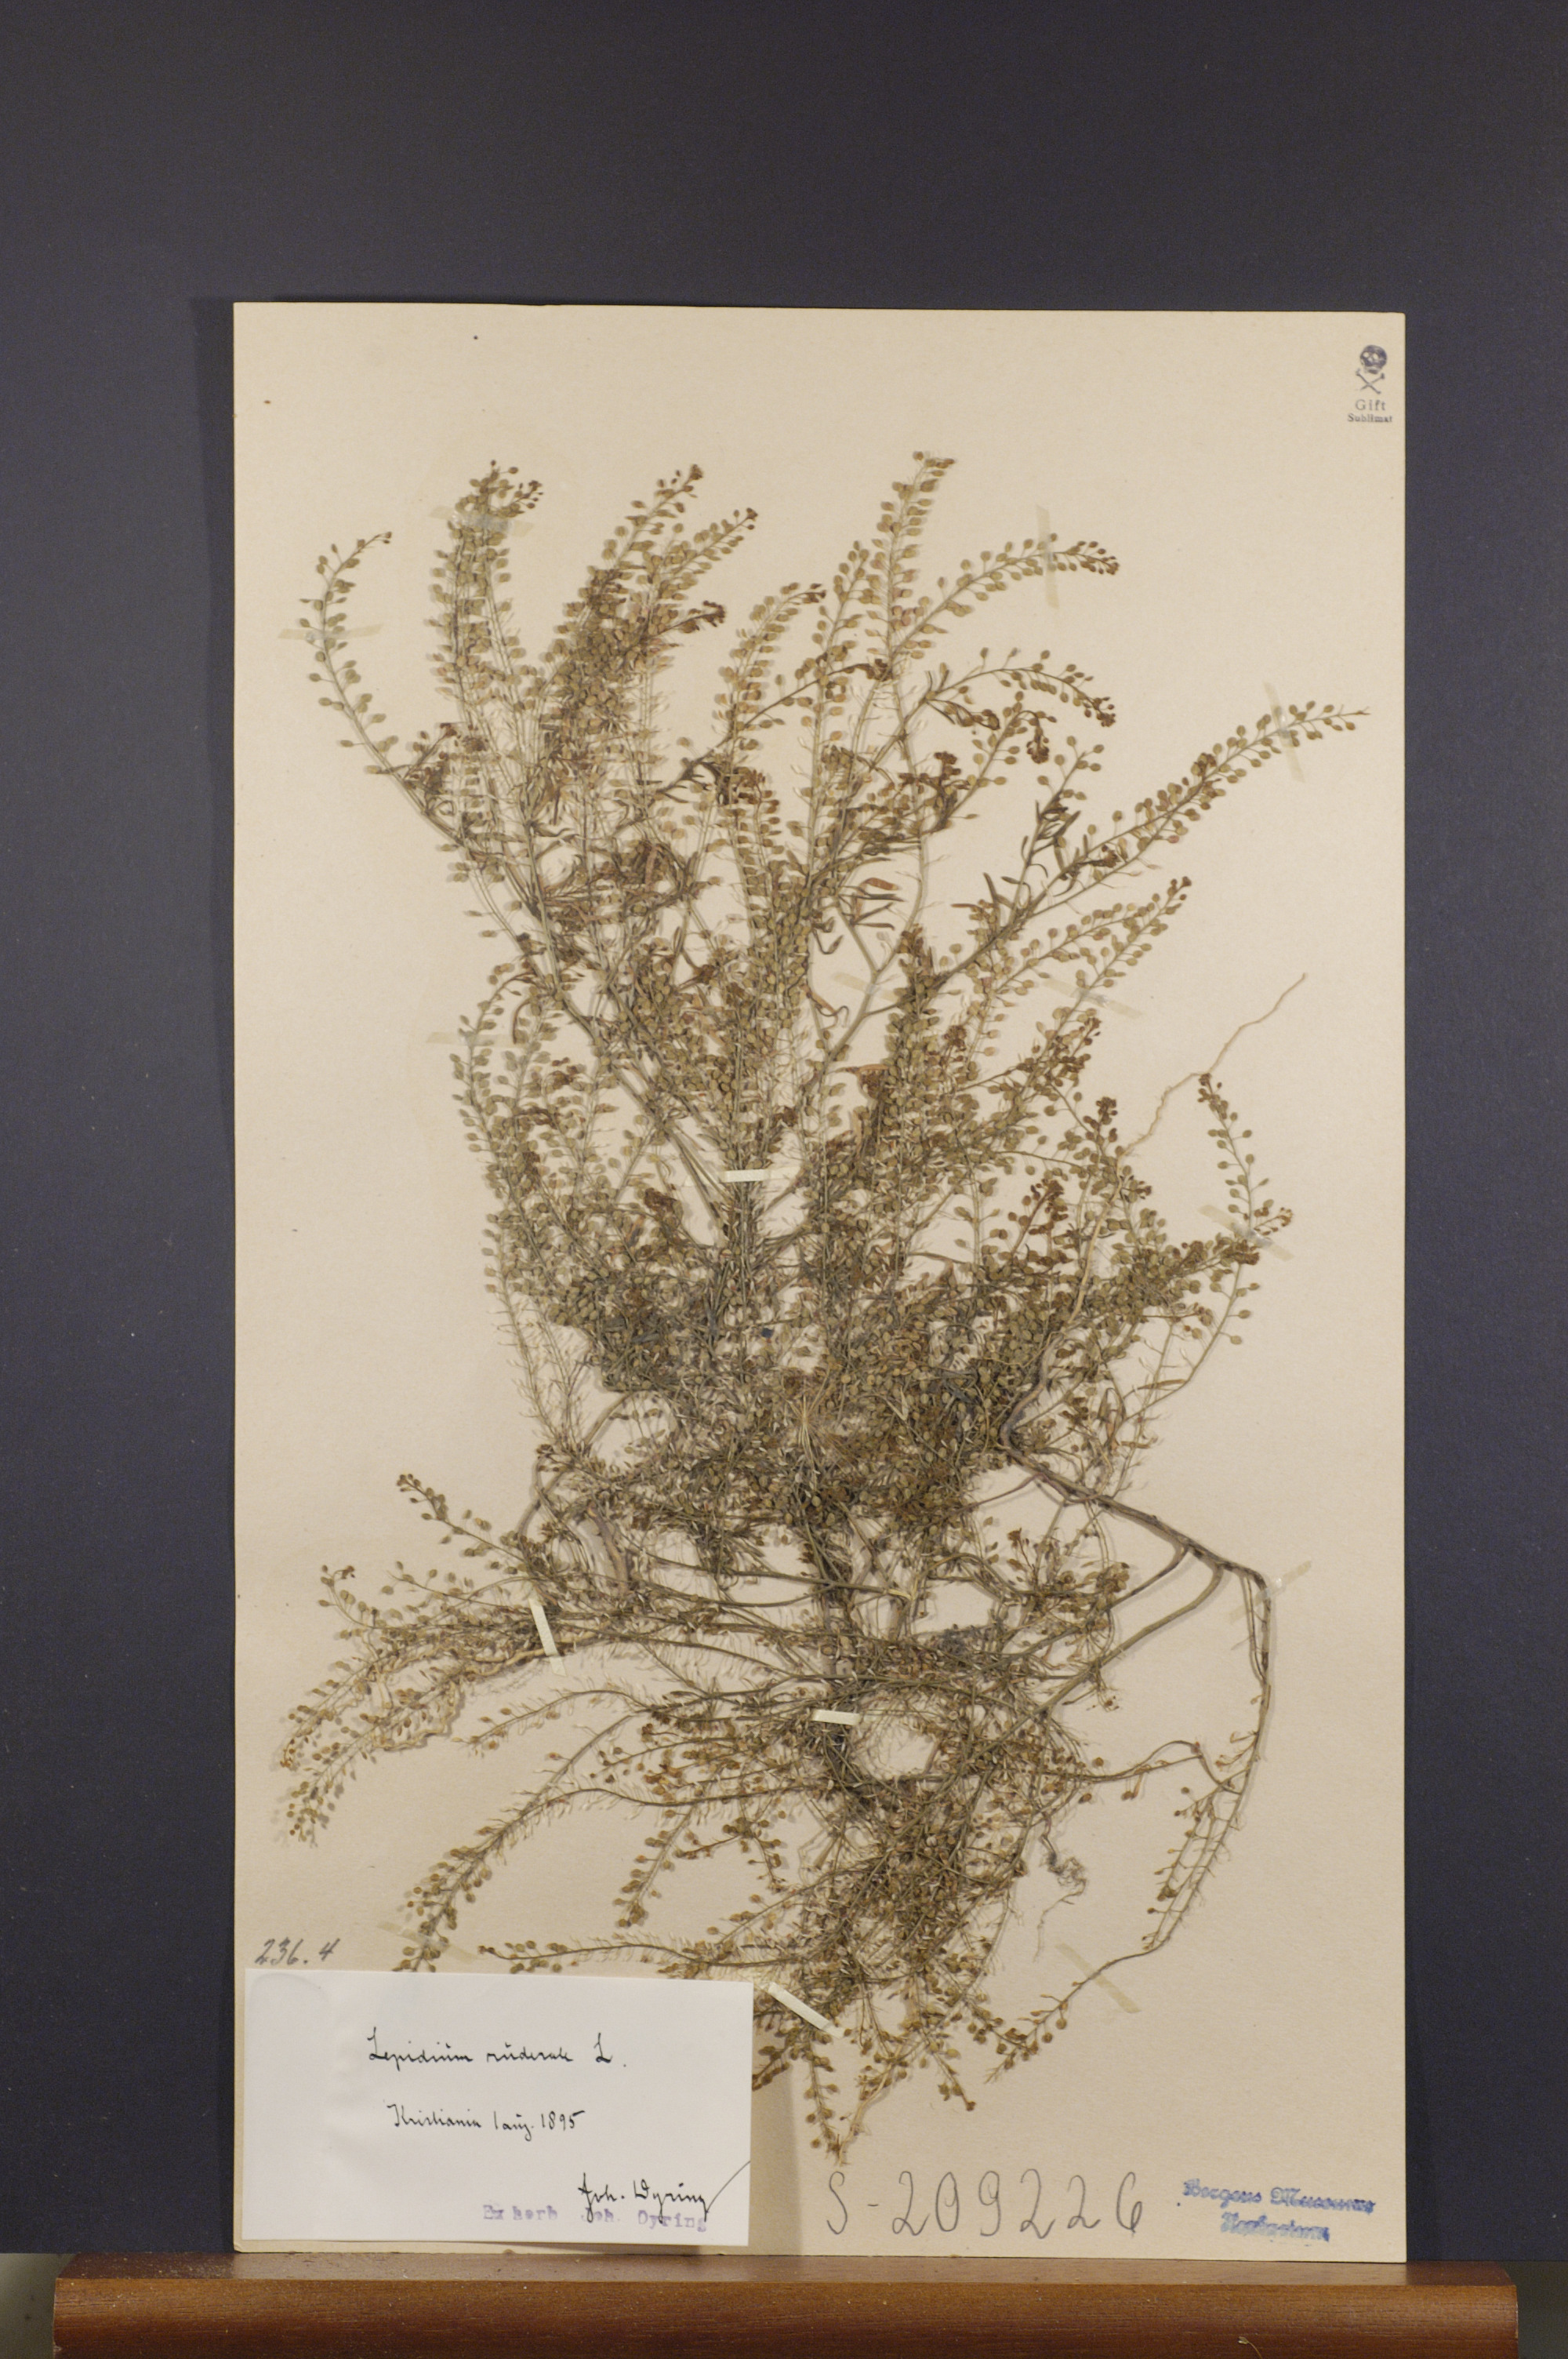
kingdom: Plantae
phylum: Tracheophyta
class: Magnoliopsida
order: Brassicales
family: Brassicaceae
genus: Lepidium
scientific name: Lepidium ruderale
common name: Narrow-leaved pepperwort
